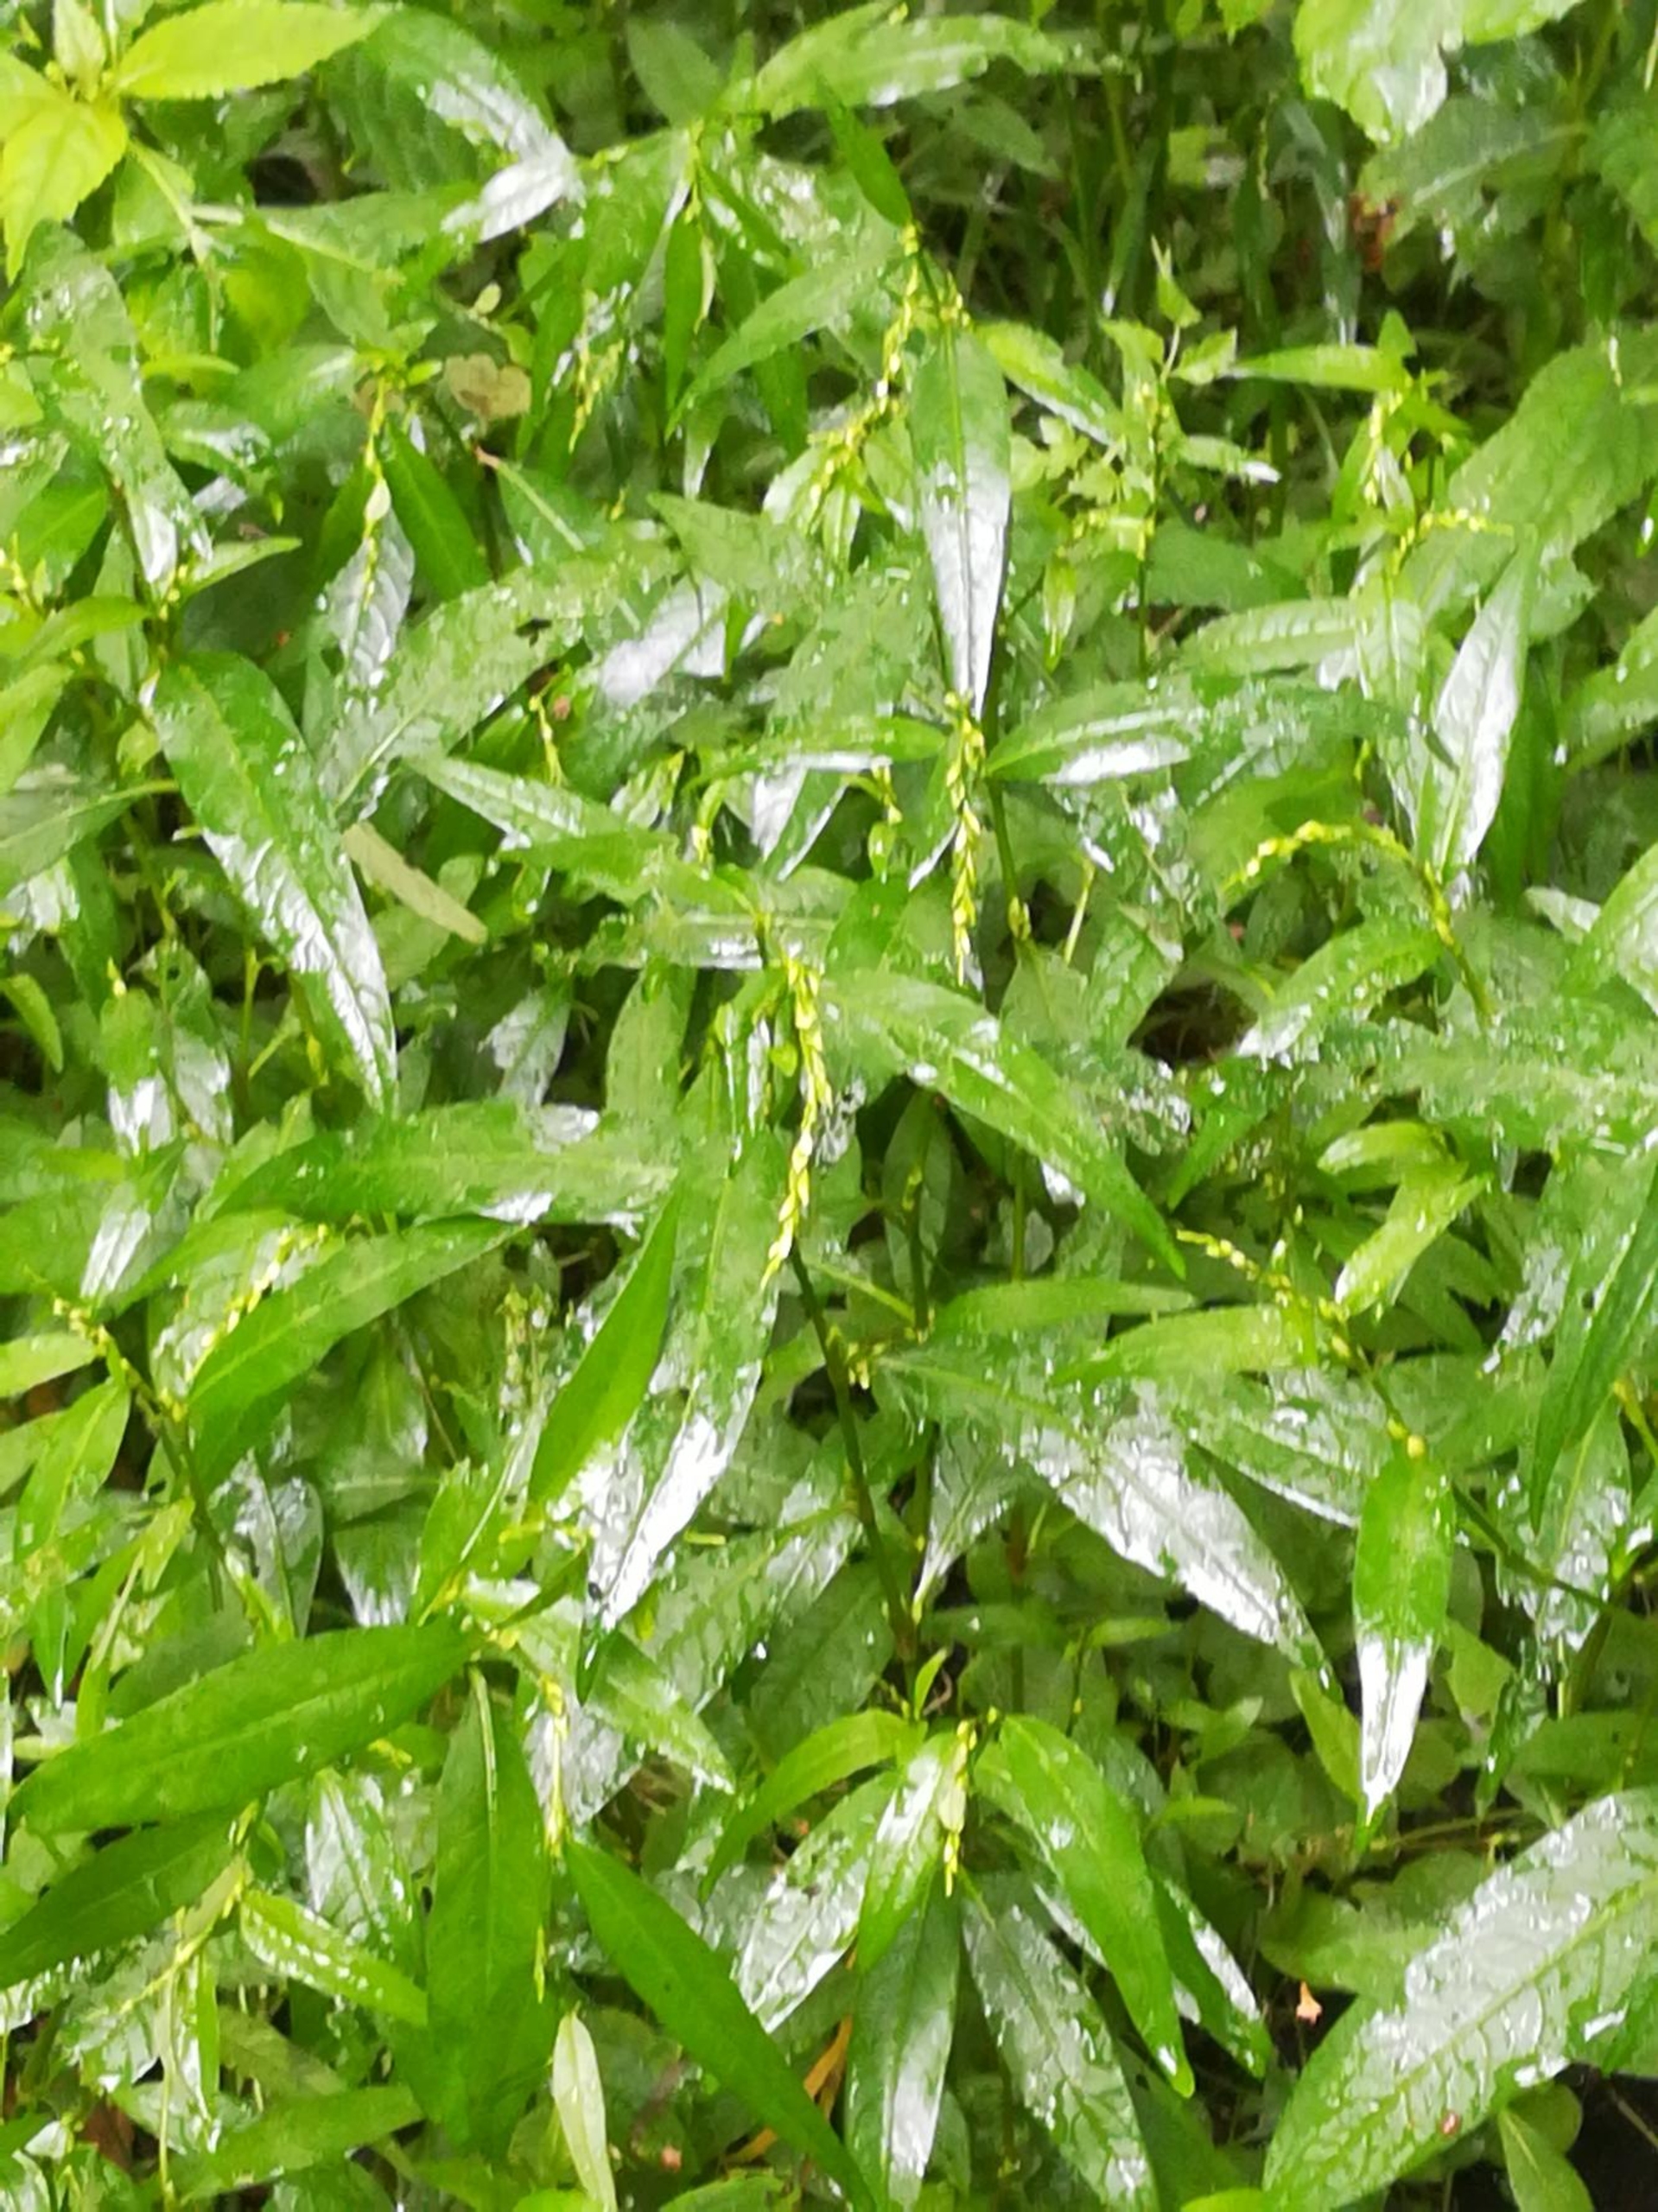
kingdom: Plantae
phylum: Tracheophyta
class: Magnoliopsida
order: Caryophyllales
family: Polygonaceae
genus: Persicaria
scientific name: Persicaria hydropiper
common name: Bidende pileurt
